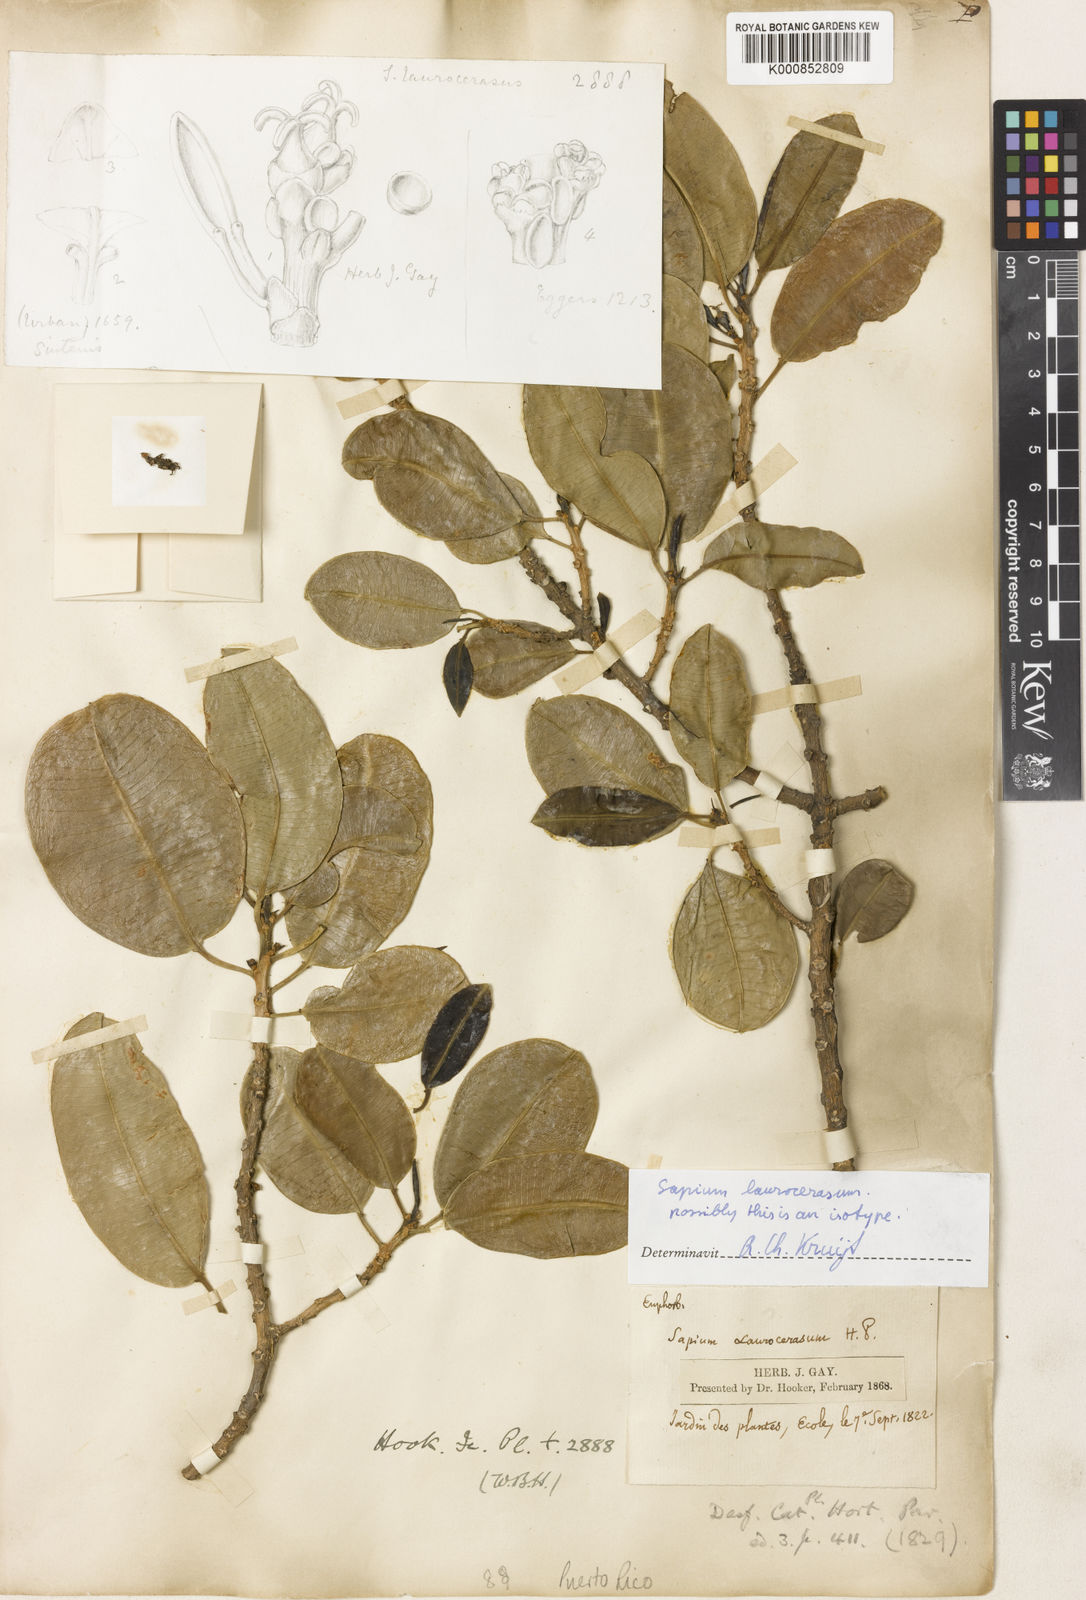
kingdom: Plantae
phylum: Tracheophyta
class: Magnoliopsida
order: Malpighiales
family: Euphorbiaceae
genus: Sapium
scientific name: Sapium laurocerasus
